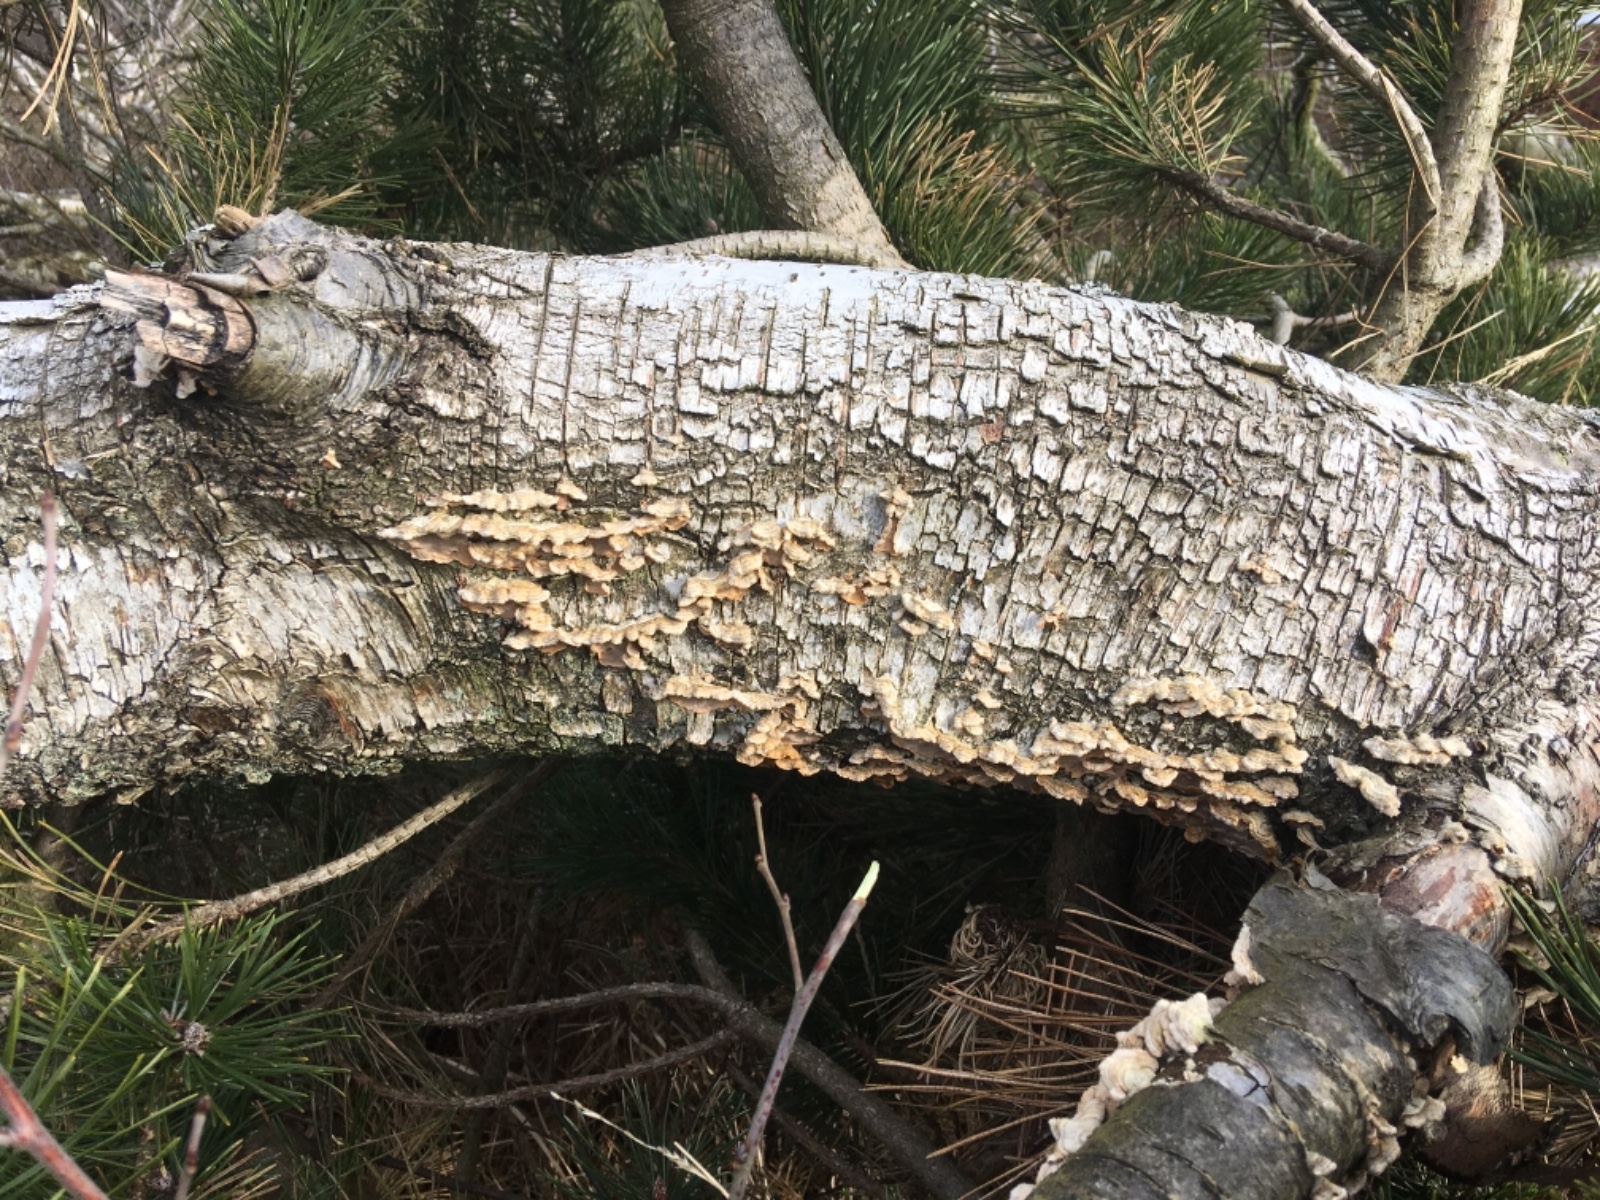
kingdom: Fungi
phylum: Basidiomycota
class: Agaricomycetes
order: Russulales
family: Stereaceae
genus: Stereum
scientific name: Stereum hirsutum
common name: håret lædersvamp
